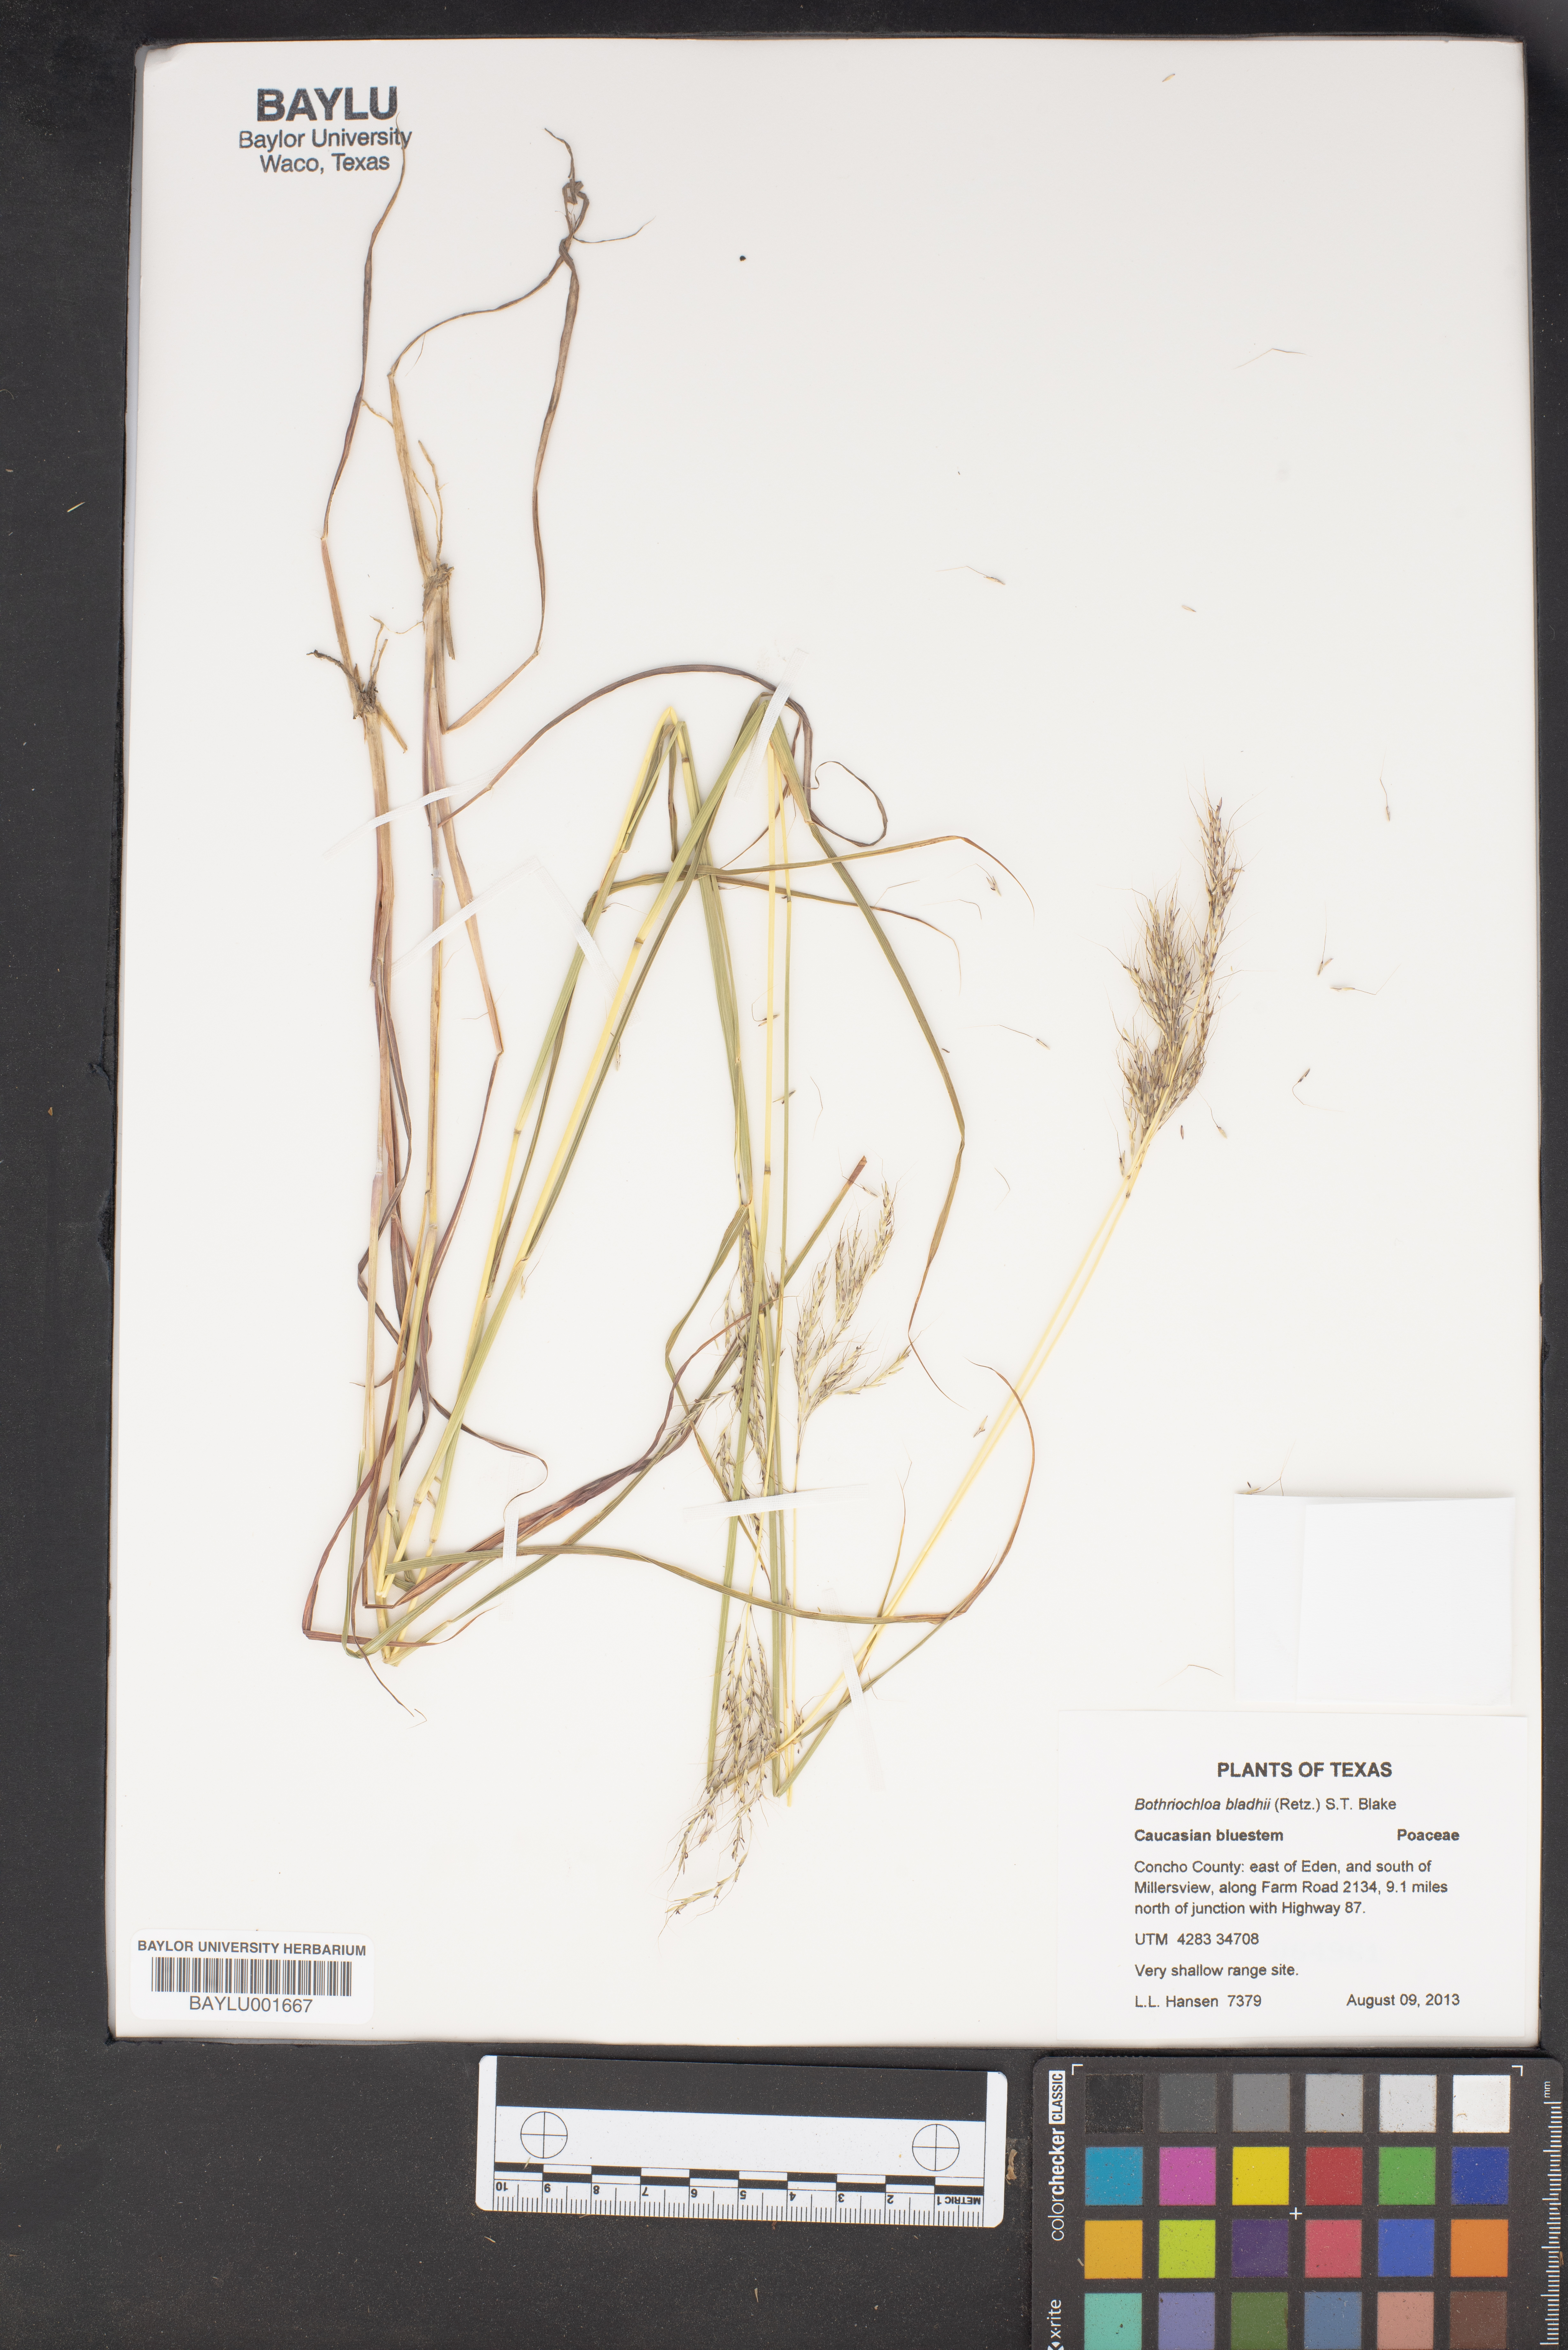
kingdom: Plantae
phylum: Tracheophyta
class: Liliopsida
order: Poales
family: Poaceae
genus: Bothriochloa
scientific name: Bothriochloa bladhii
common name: Caucasian bluestem
